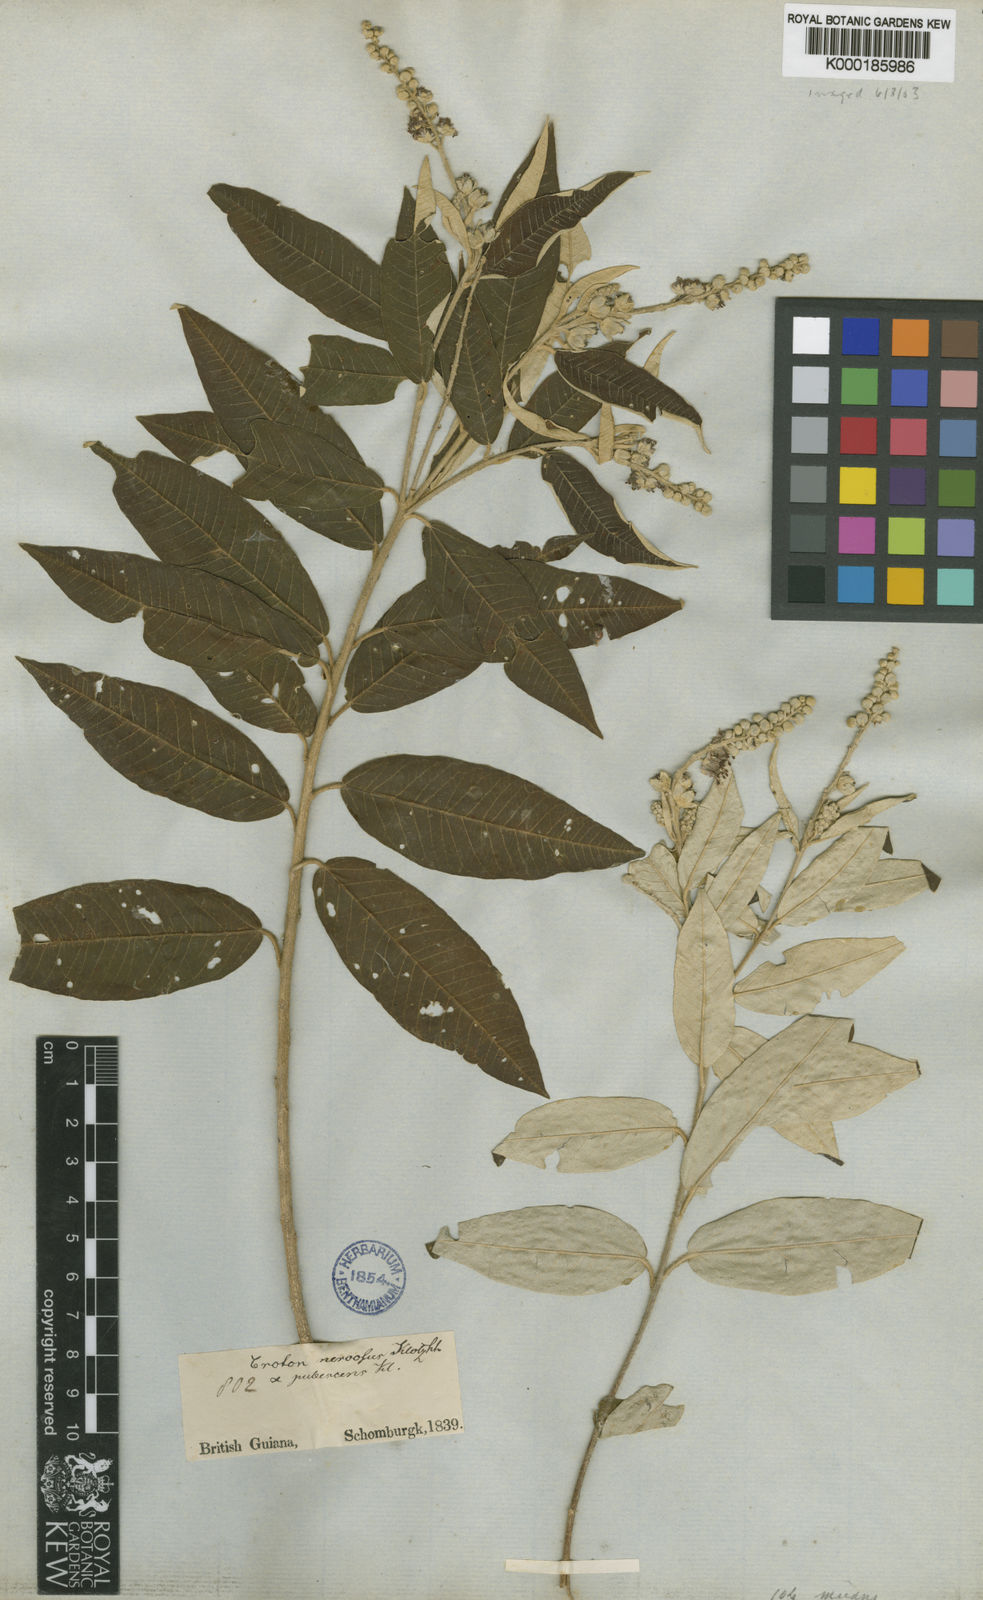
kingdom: Plantae
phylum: Tracheophyta
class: Magnoliopsida
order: Malpighiales
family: Euphorbiaceae
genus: Croton
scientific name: Croton argyrophyllus
